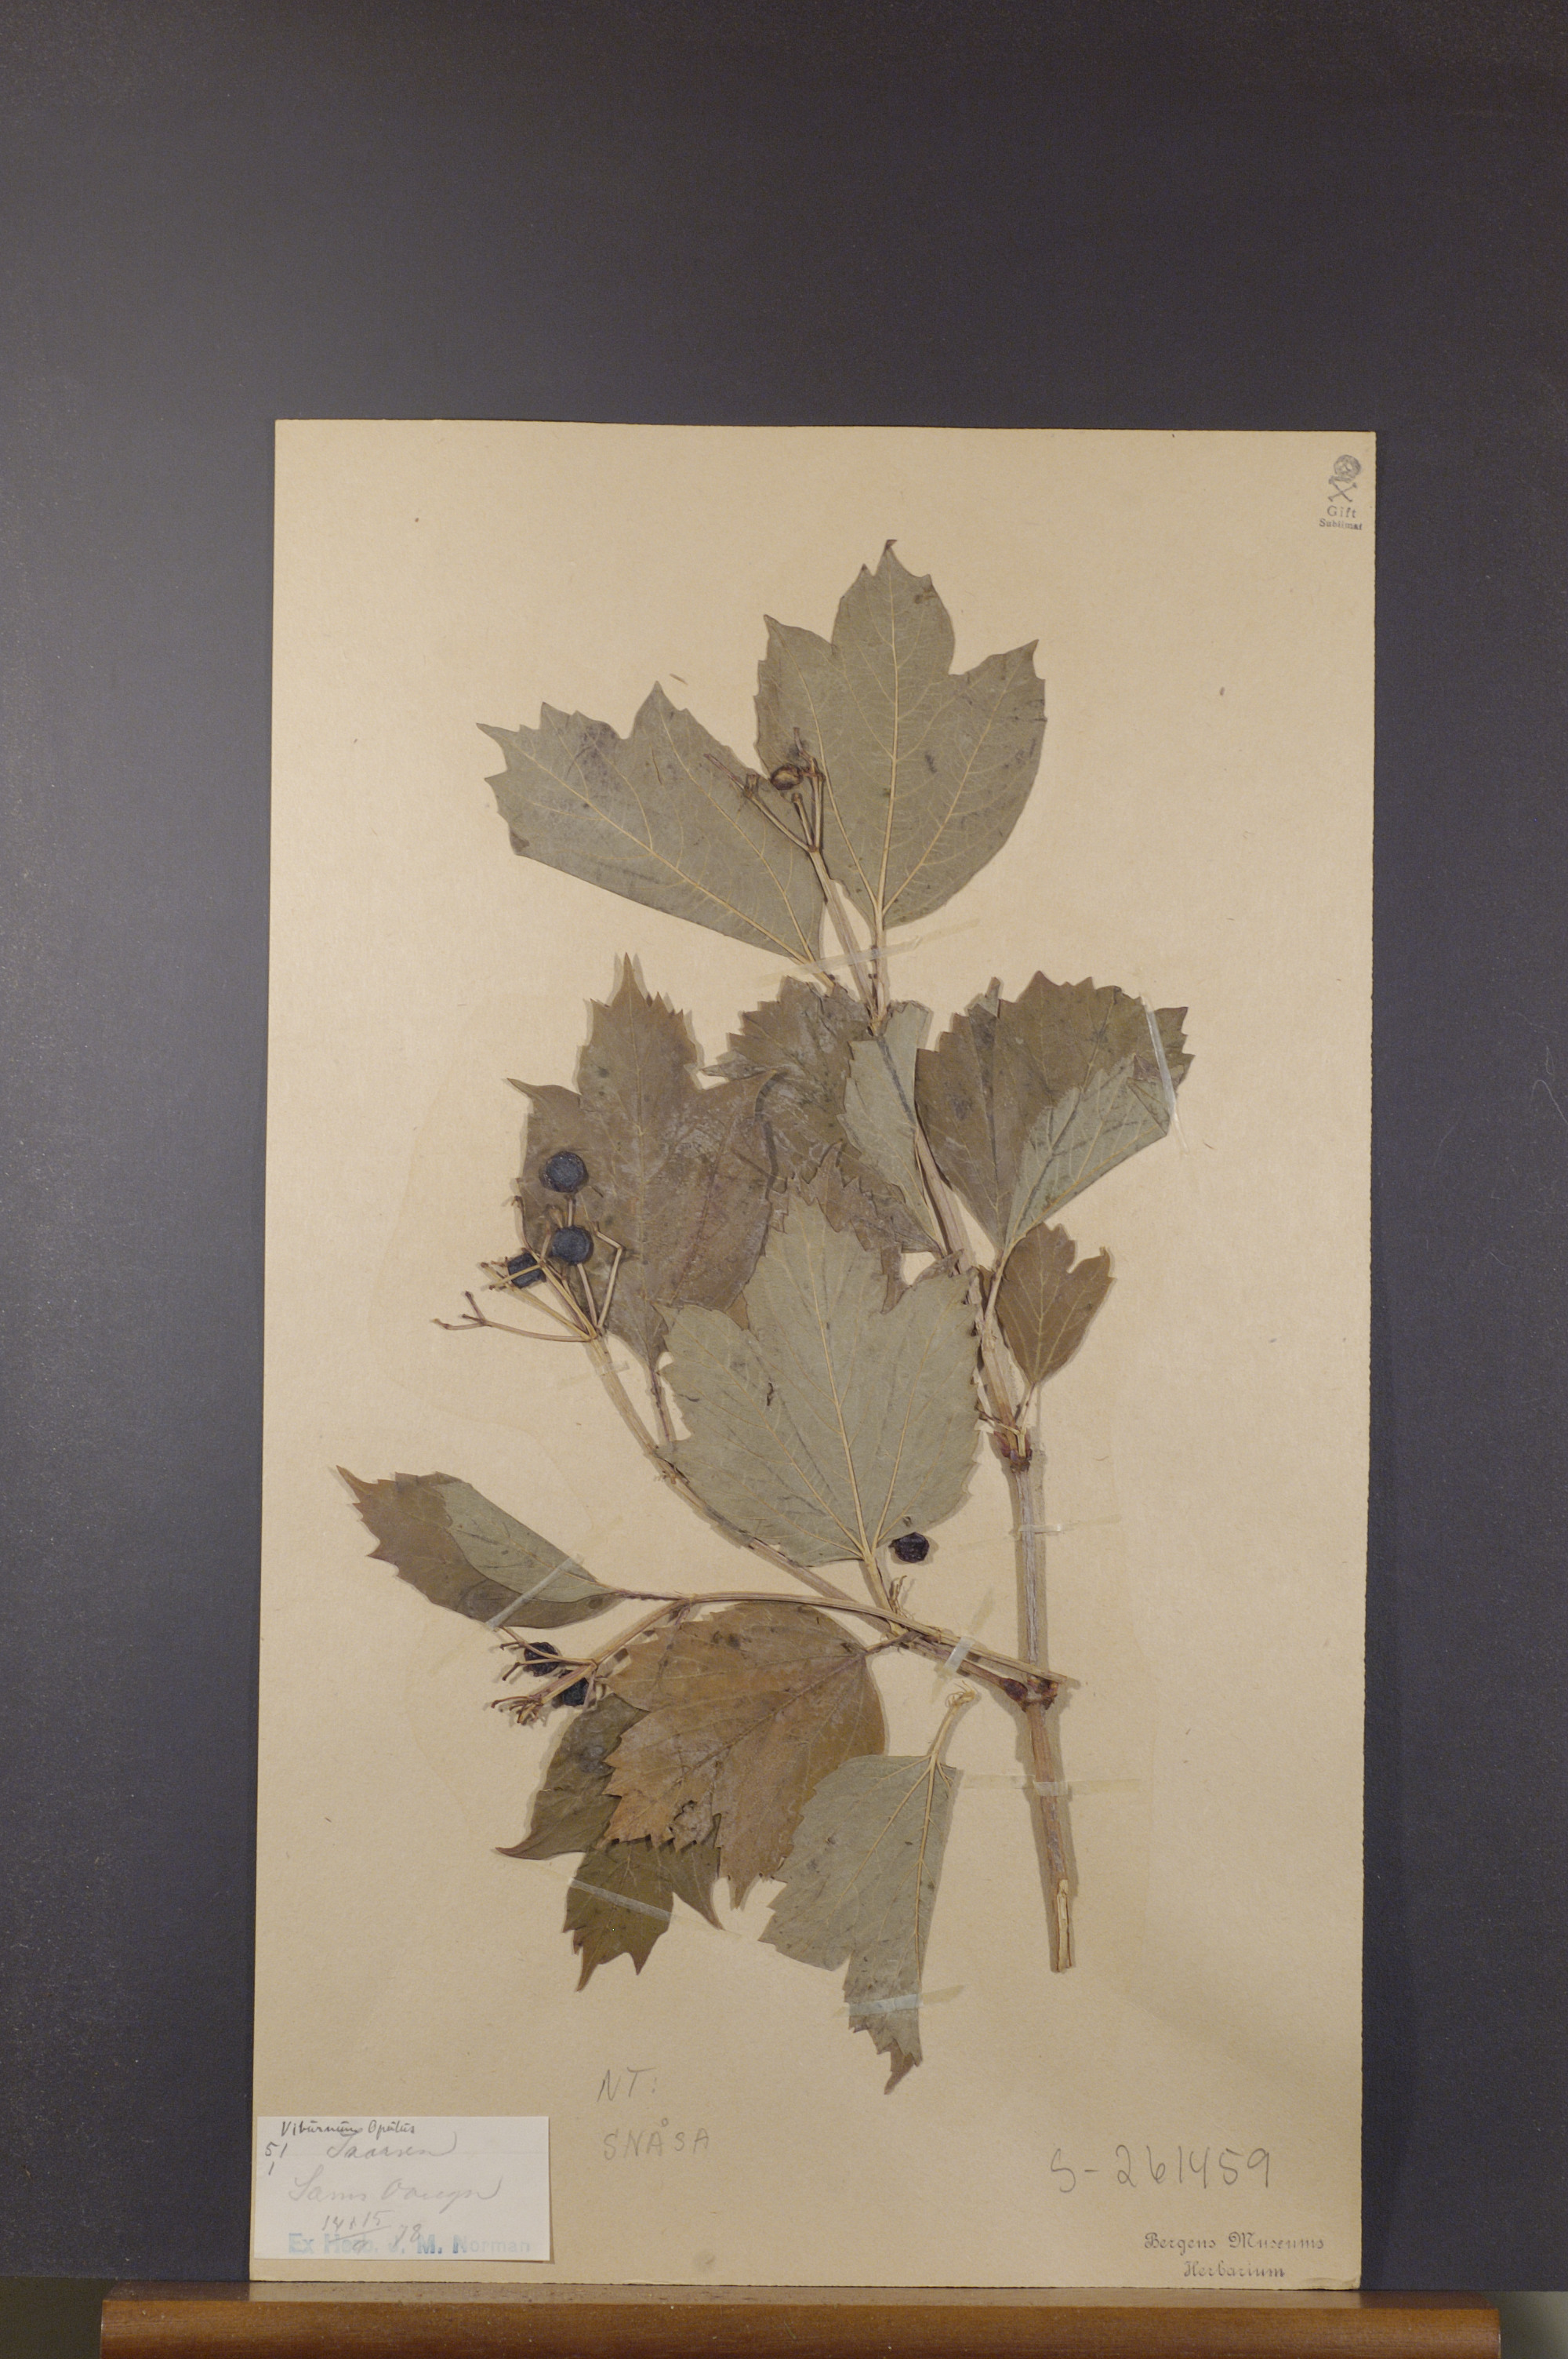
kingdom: Plantae
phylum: Tracheophyta
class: Magnoliopsida
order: Dipsacales
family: Viburnaceae
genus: Viburnum
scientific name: Viburnum opulus
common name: Guelder-rose
